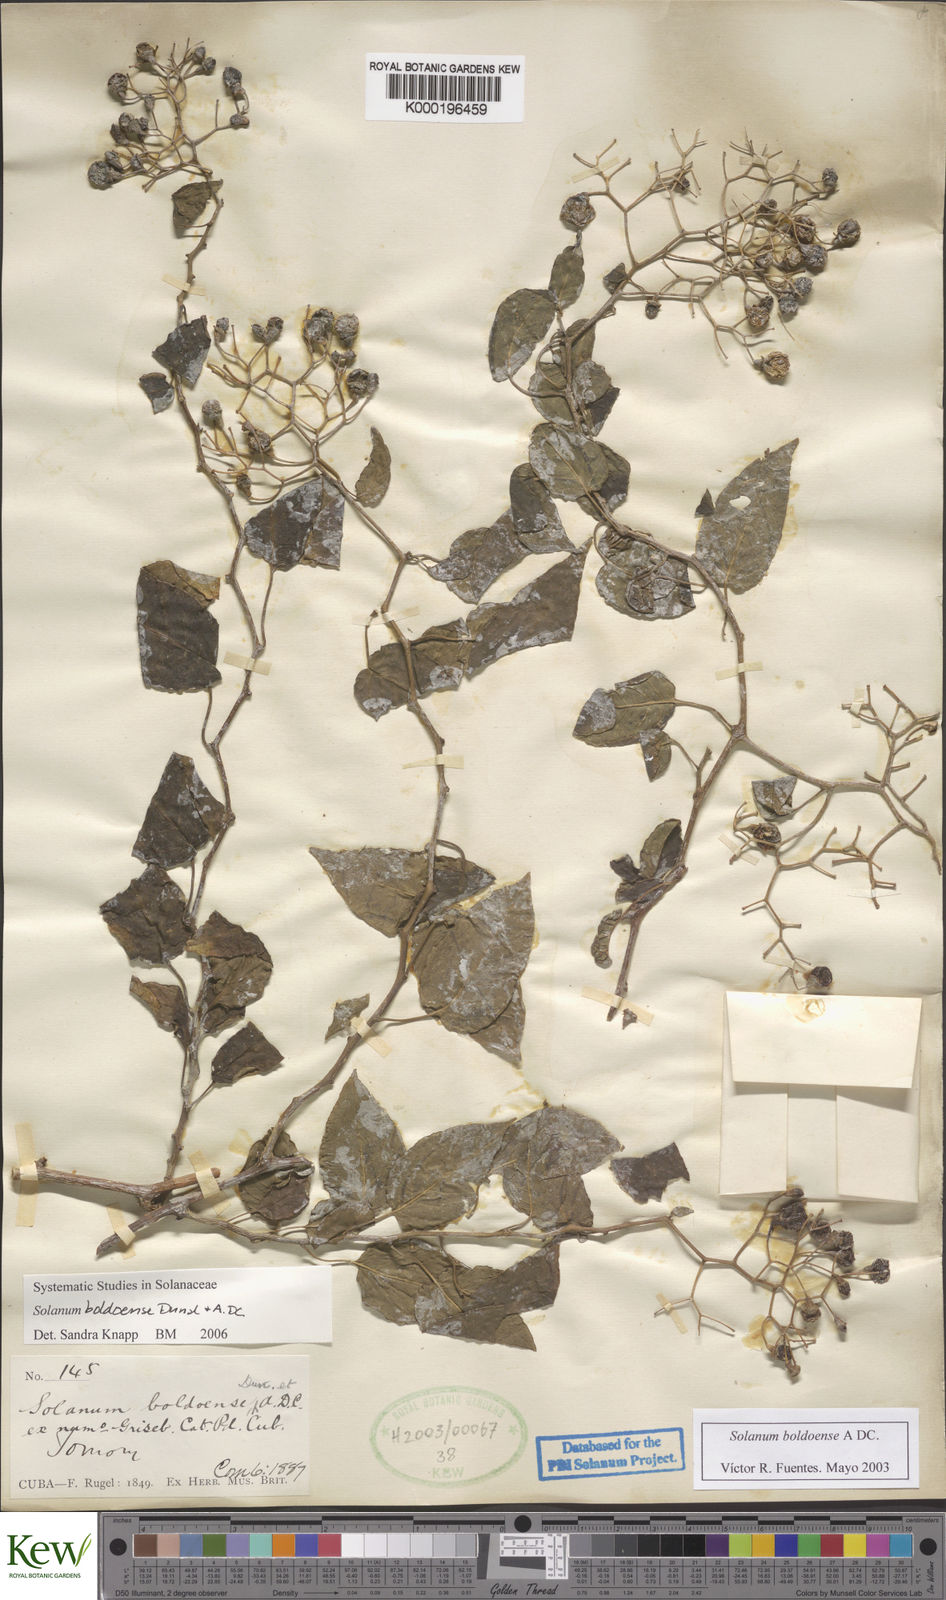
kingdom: Plantae
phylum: Tracheophyta
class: Magnoliopsida
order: Solanales
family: Solanaceae
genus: Solanum
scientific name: Solanum boldoense
